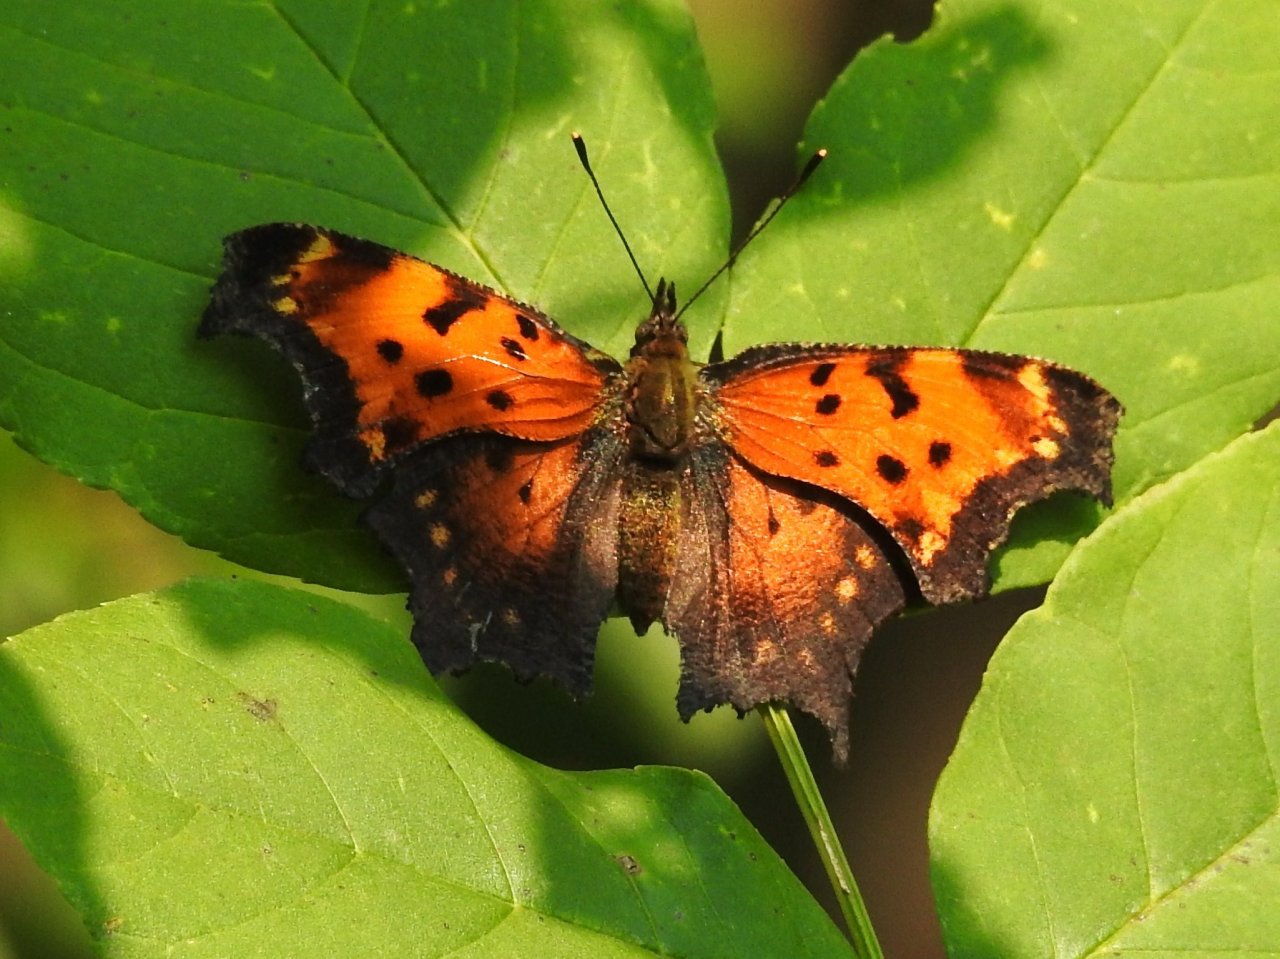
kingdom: Animalia
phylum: Arthropoda
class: Insecta
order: Lepidoptera
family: Nymphalidae
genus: Polygonia
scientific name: Polygonia comma
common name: Eastern Comma
